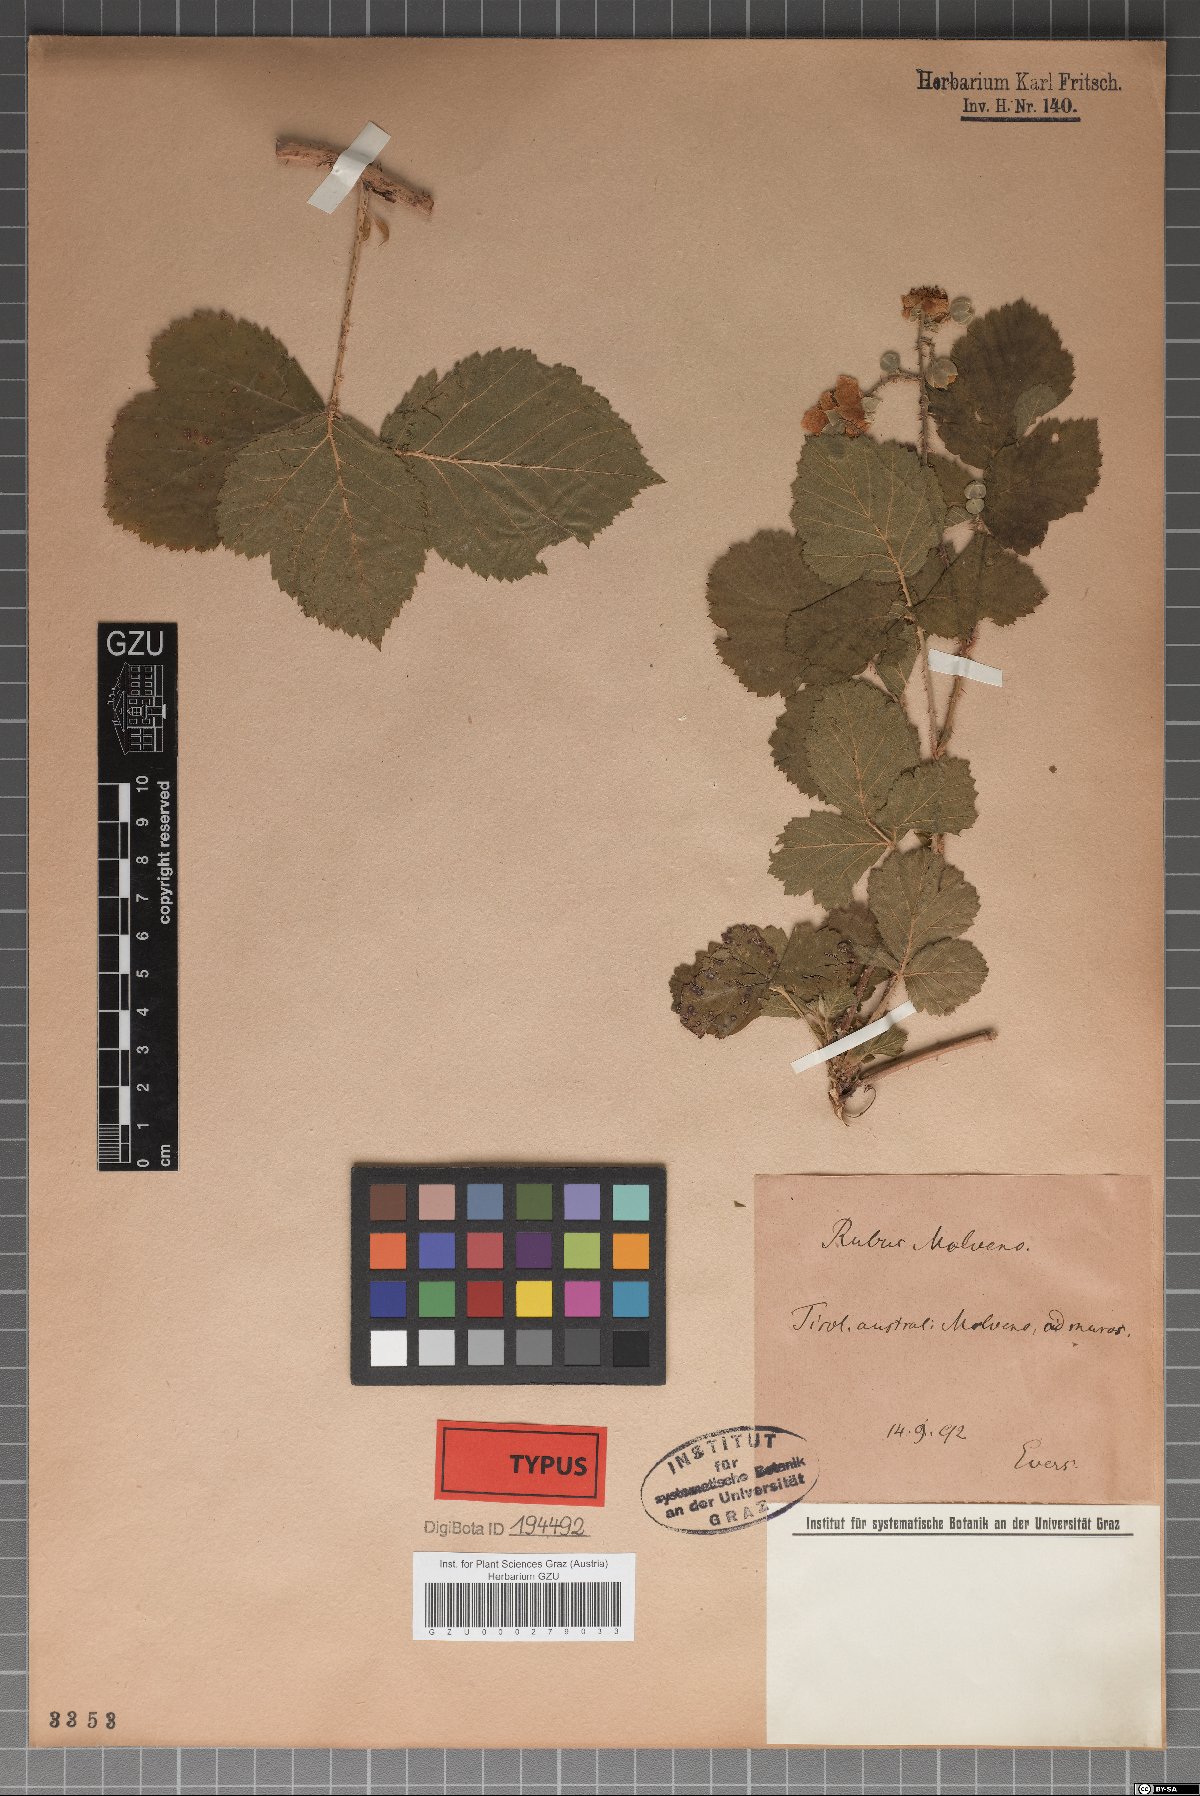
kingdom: Plantae
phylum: Tracheophyta
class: Magnoliopsida
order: Rosales
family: Rosaceae
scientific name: Rosaceae
